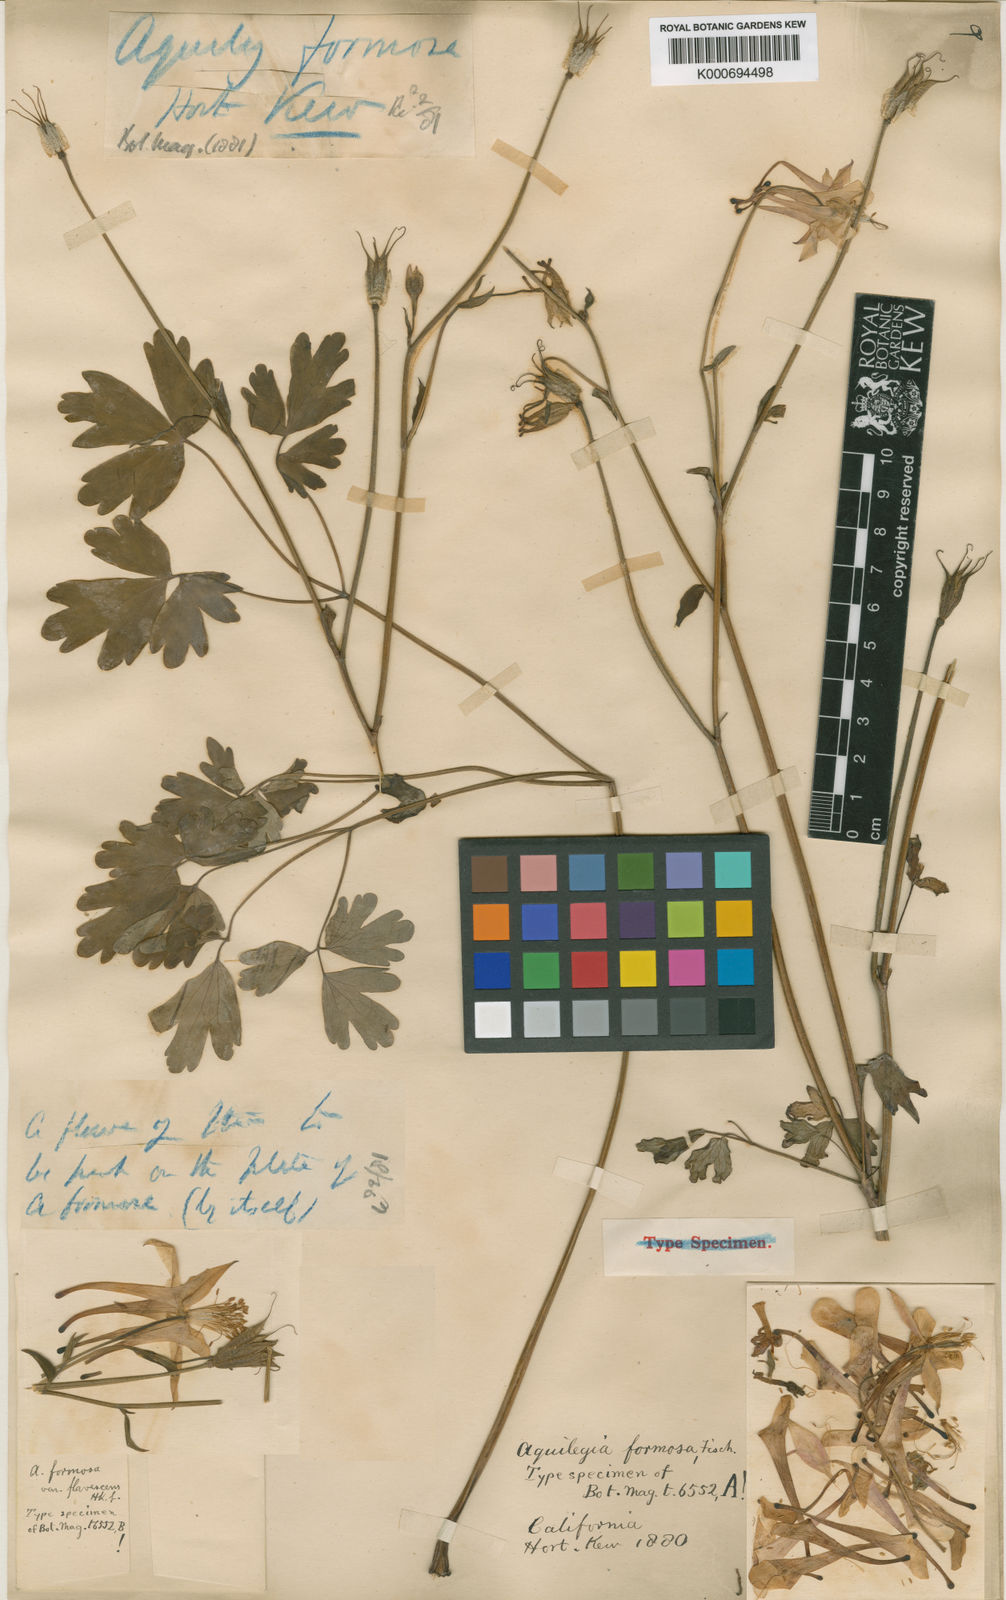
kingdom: Plantae
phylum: Tracheophyta
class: Magnoliopsida
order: Ranunculales
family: Ranunculaceae
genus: Aquilegia
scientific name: Aquilegia
